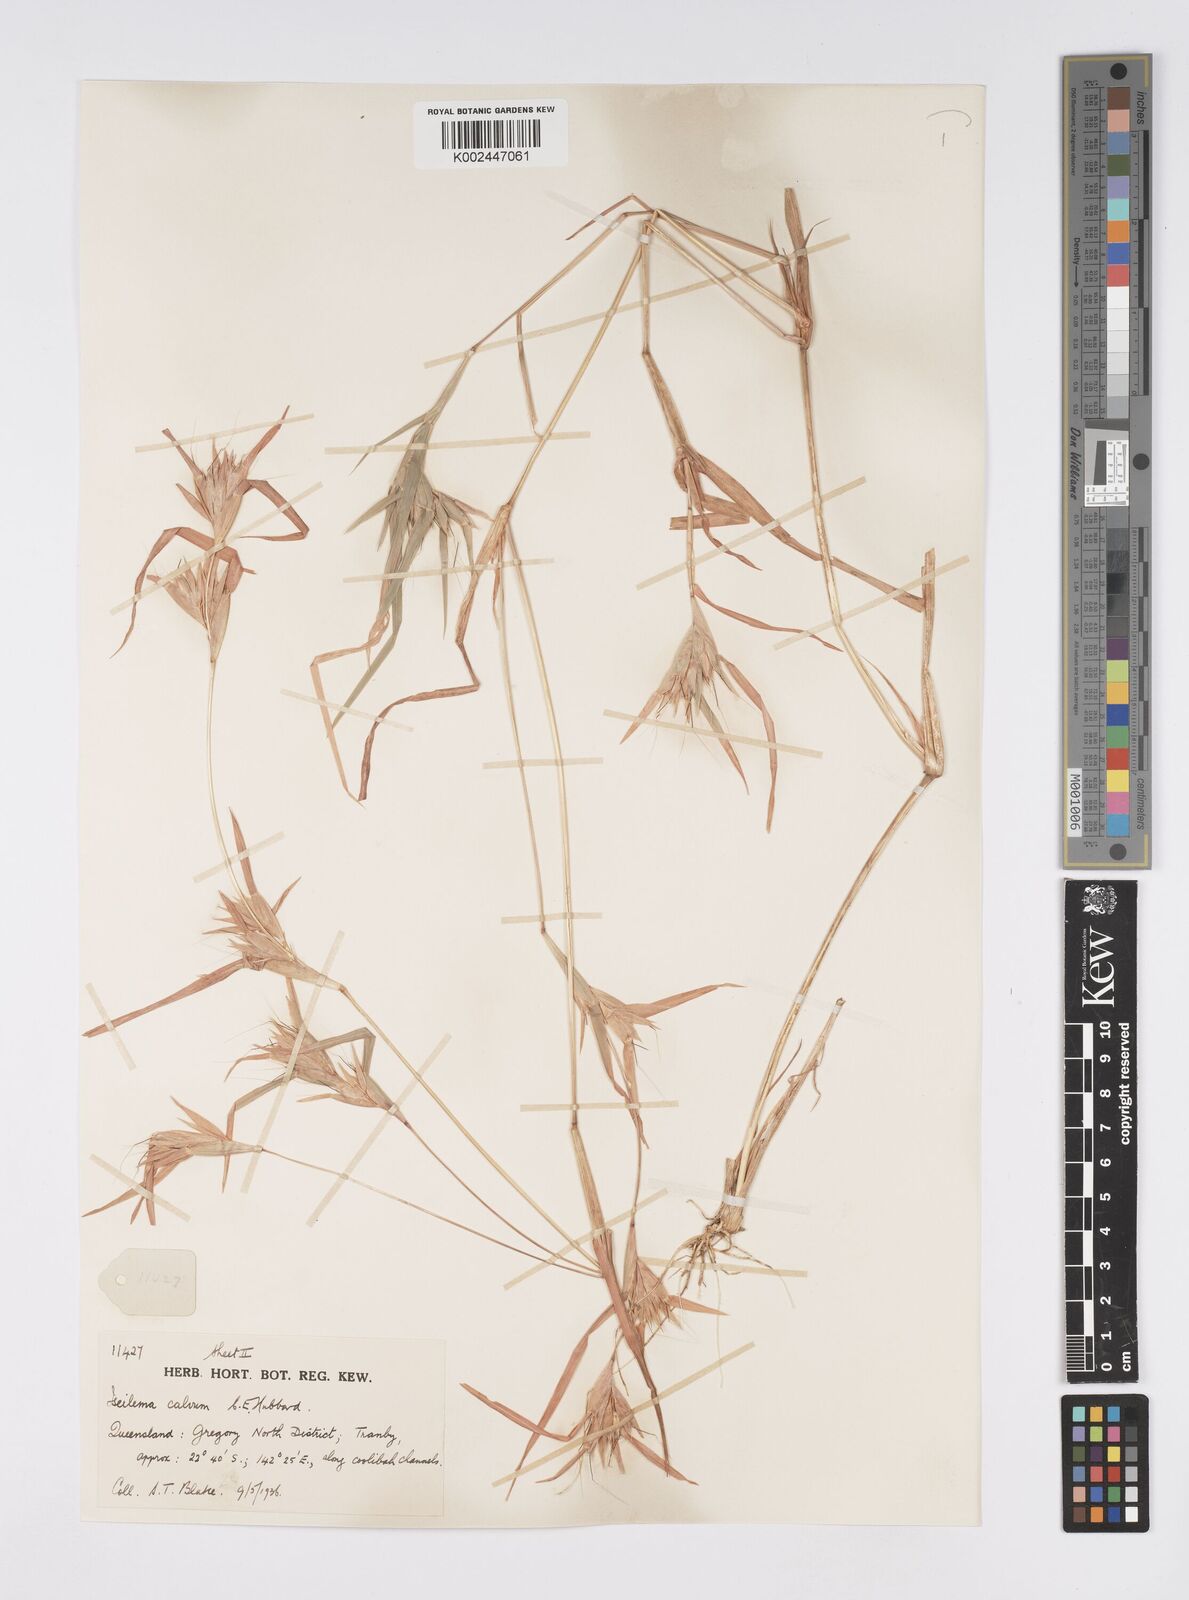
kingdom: Plantae
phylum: Tracheophyta
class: Liliopsida
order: Poales
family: Poaceae
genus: Iseilema
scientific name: Iseilema calvum
